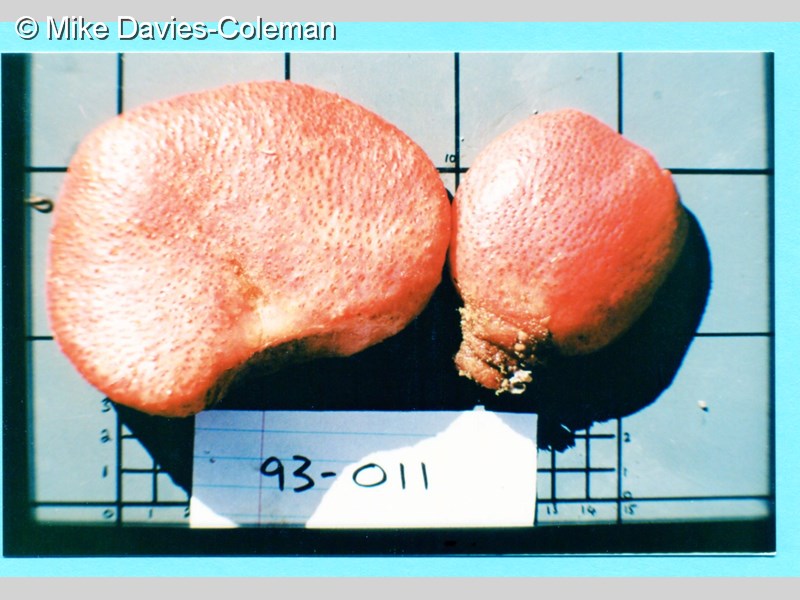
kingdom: Animalia
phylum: Chordata
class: Ascidiacea
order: Stolidobranchia
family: Styelidae
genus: Gynandrocarpa
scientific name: Gynandrocarpa placenta
